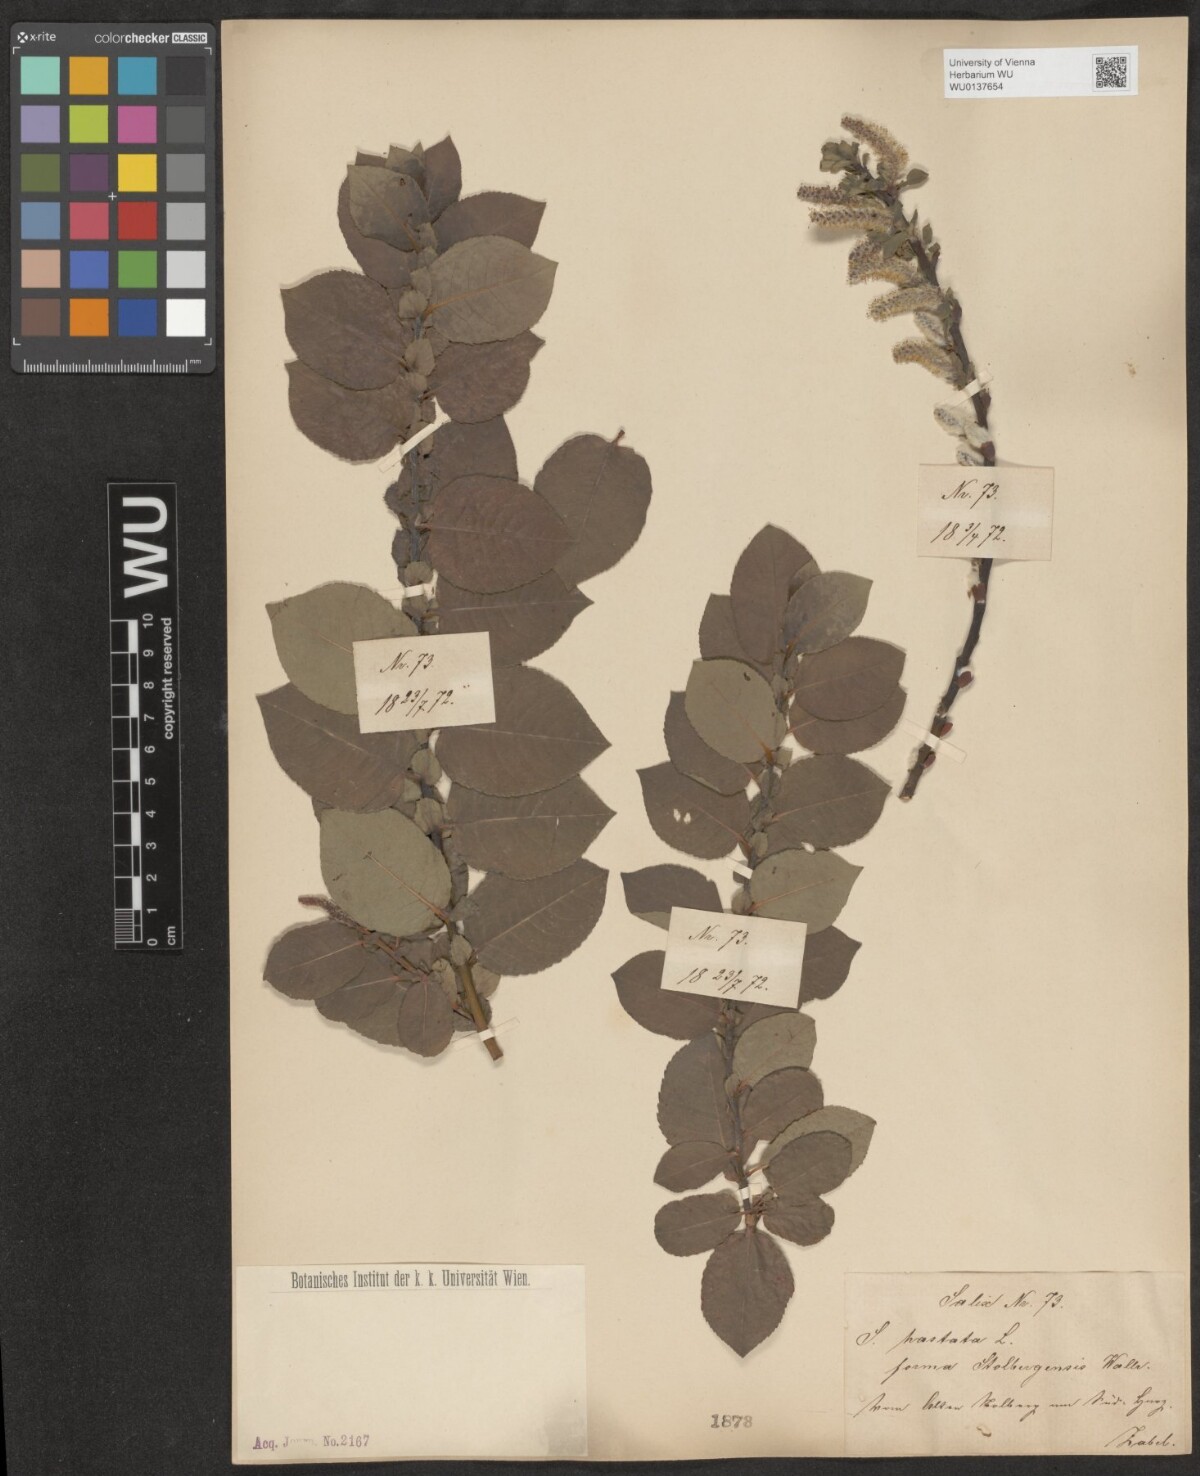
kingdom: Plantae
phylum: Tracheophyta
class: Magnoliopsida
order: Malpighiales
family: Salicaceae
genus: Salix
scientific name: Salix hastata
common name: Halberd willow
